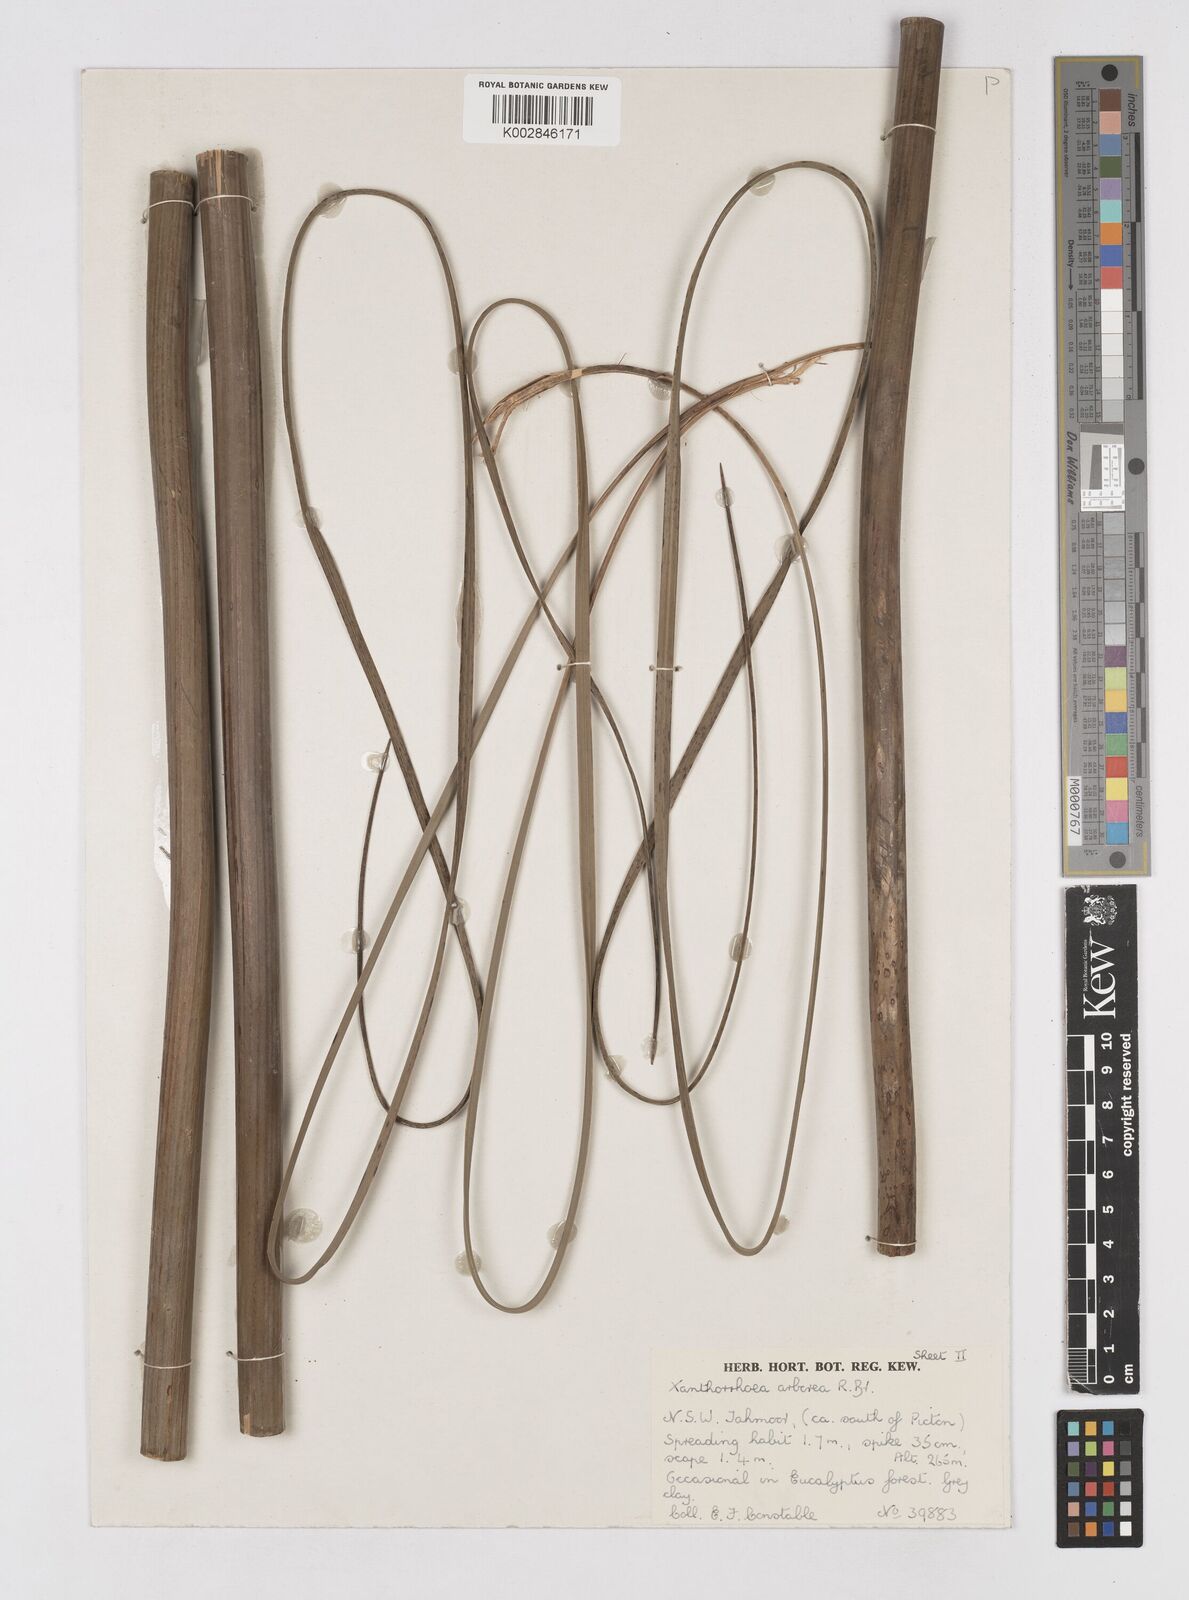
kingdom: Plantae
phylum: Tracheophyta
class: Liliopsida
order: Asparagales
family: Asphodelaceae
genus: Xanthorrhoea
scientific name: Xanthorrhoea arborea
